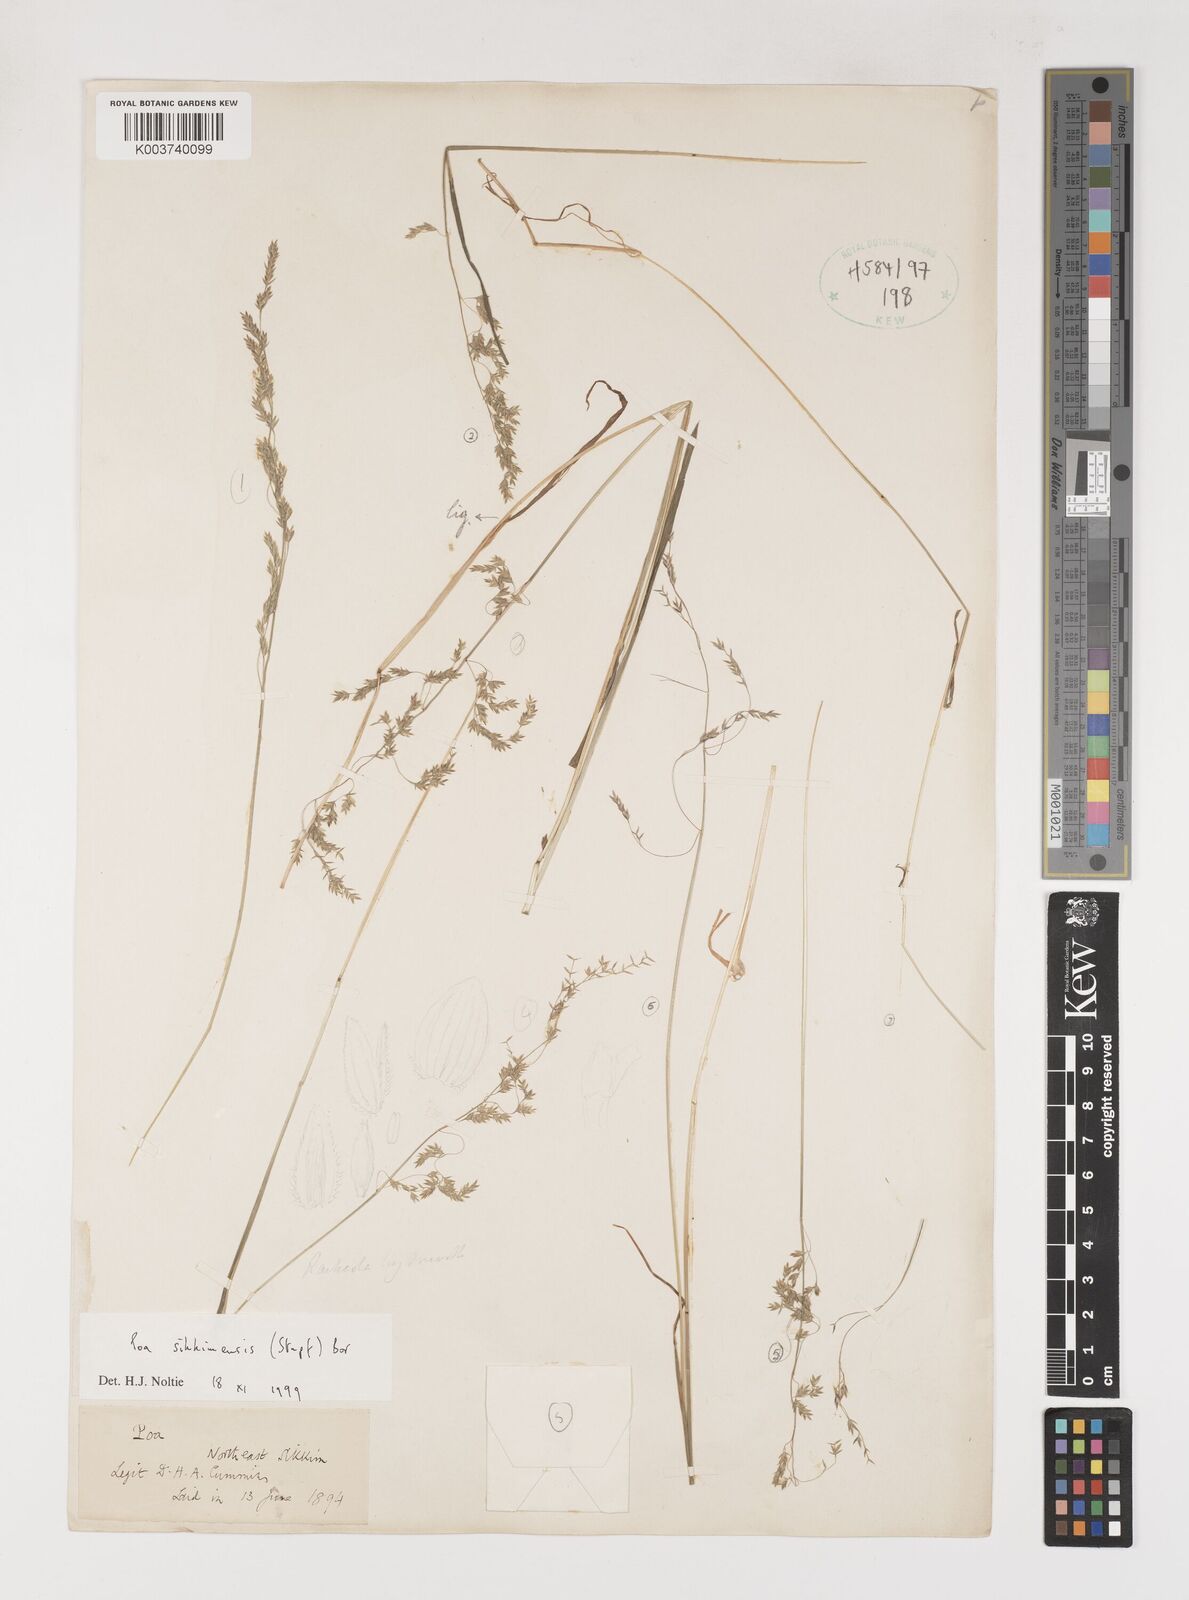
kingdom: Plantae
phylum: Tracheophyta
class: Liliopsida
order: Poales
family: Poaceae
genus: Poa
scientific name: Poa sikkimensis
